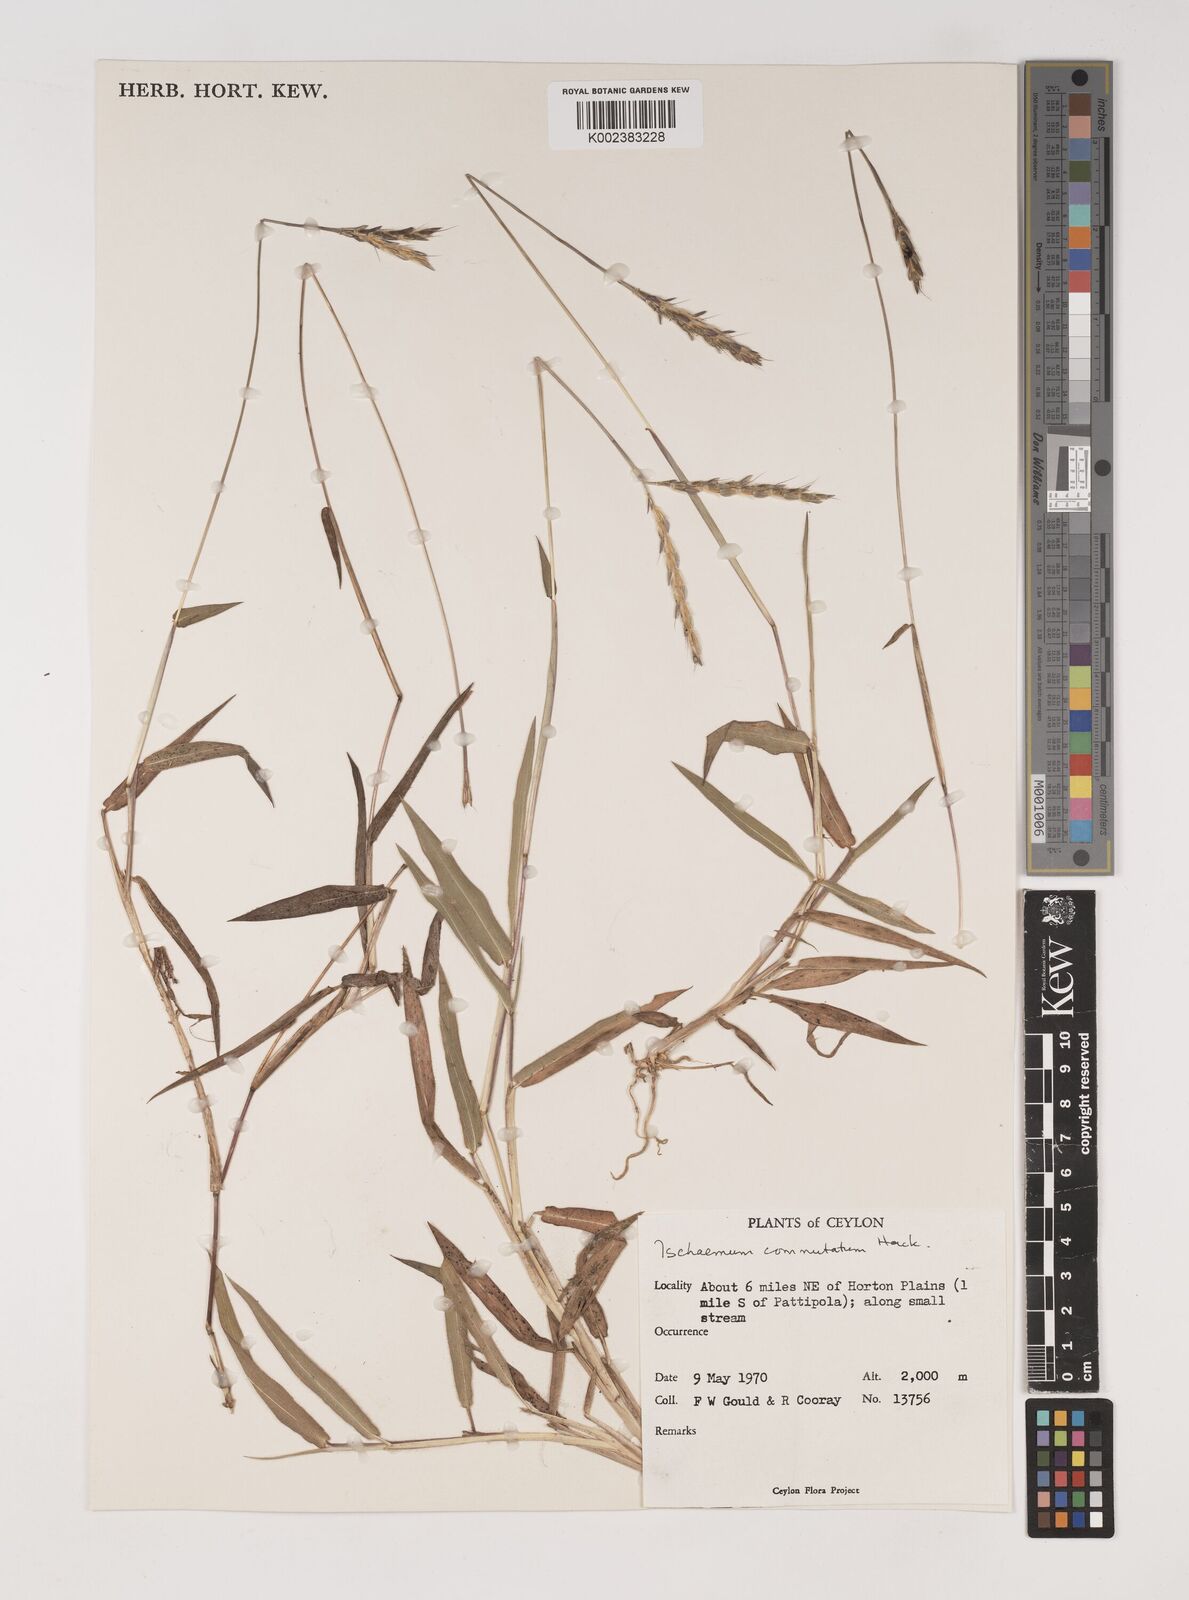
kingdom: Plantae
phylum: Tracheophyta
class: Liliopsida
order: Poales
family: Poaceae
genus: Ischaemum
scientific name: Ischaemum commutatum
